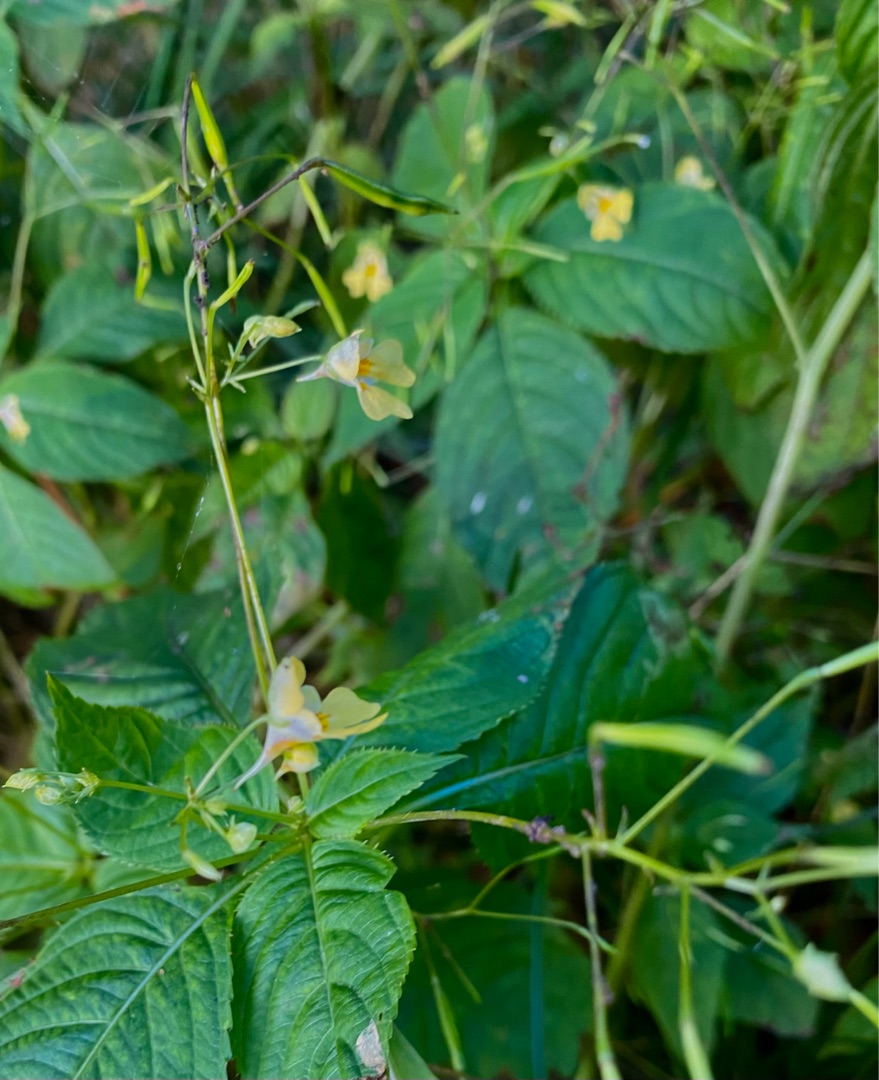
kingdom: Plantae
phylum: Tracheophyta
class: Magnoliopsida
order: Ericales
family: Balsaminaceae
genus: Impatiens
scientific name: Impatiens parviflora
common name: Småblomstret balsamin
